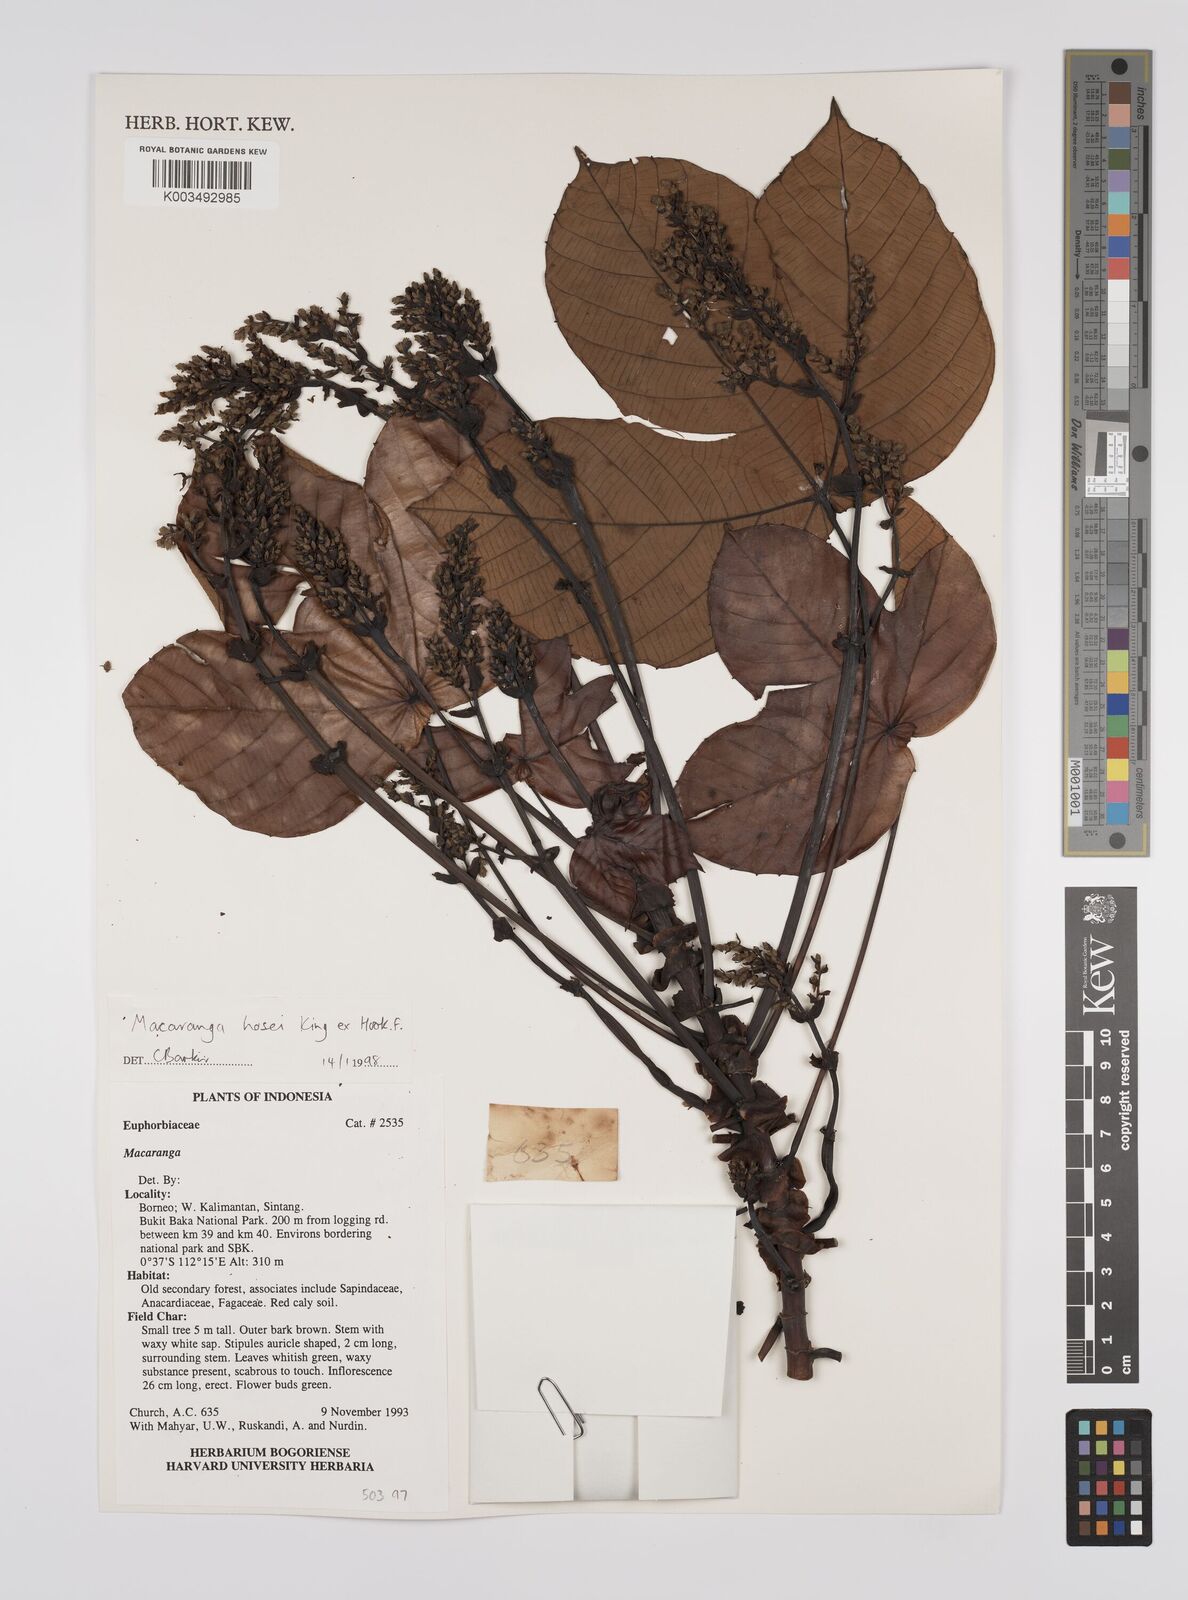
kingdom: Plantae
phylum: Tracheophyta
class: Magnoliopsida
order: Malpighiales
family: Euphorbiaceae
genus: Macaranga
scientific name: Macaranga hosei
